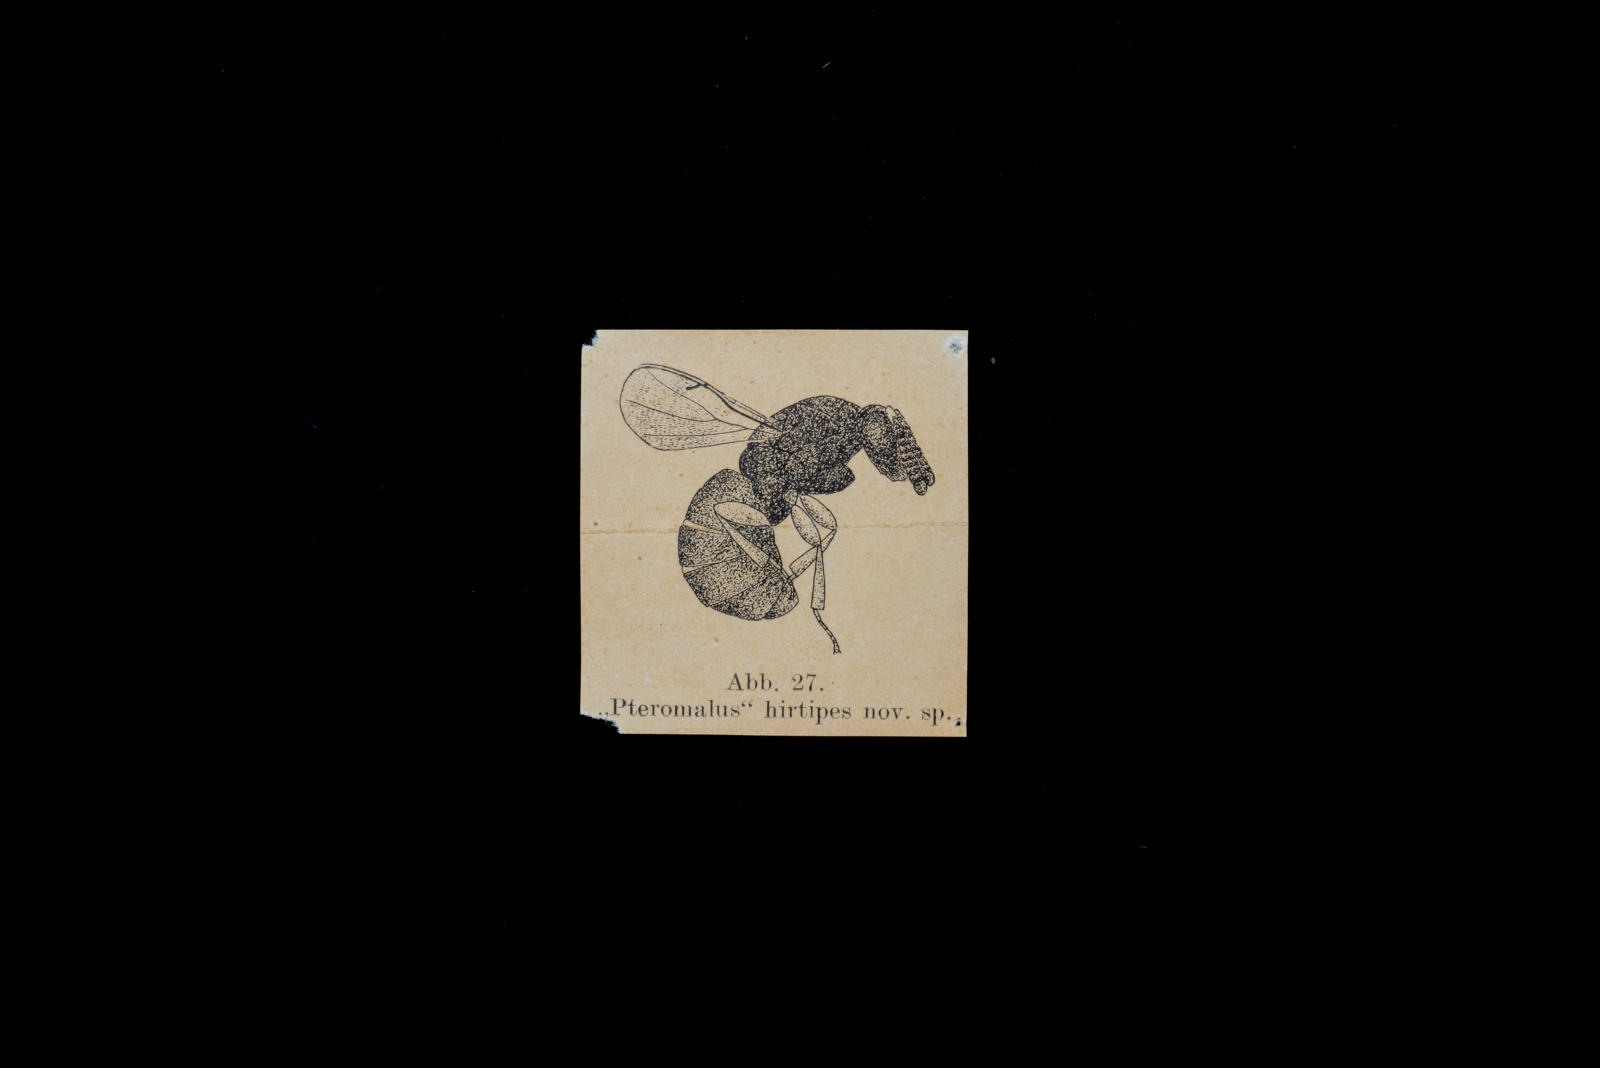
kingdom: Animalia
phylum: Arthropoda
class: Insecta
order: Hymenoptera
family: Pteromalidae
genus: Pteromalus
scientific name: Pteromalus hirtipes
